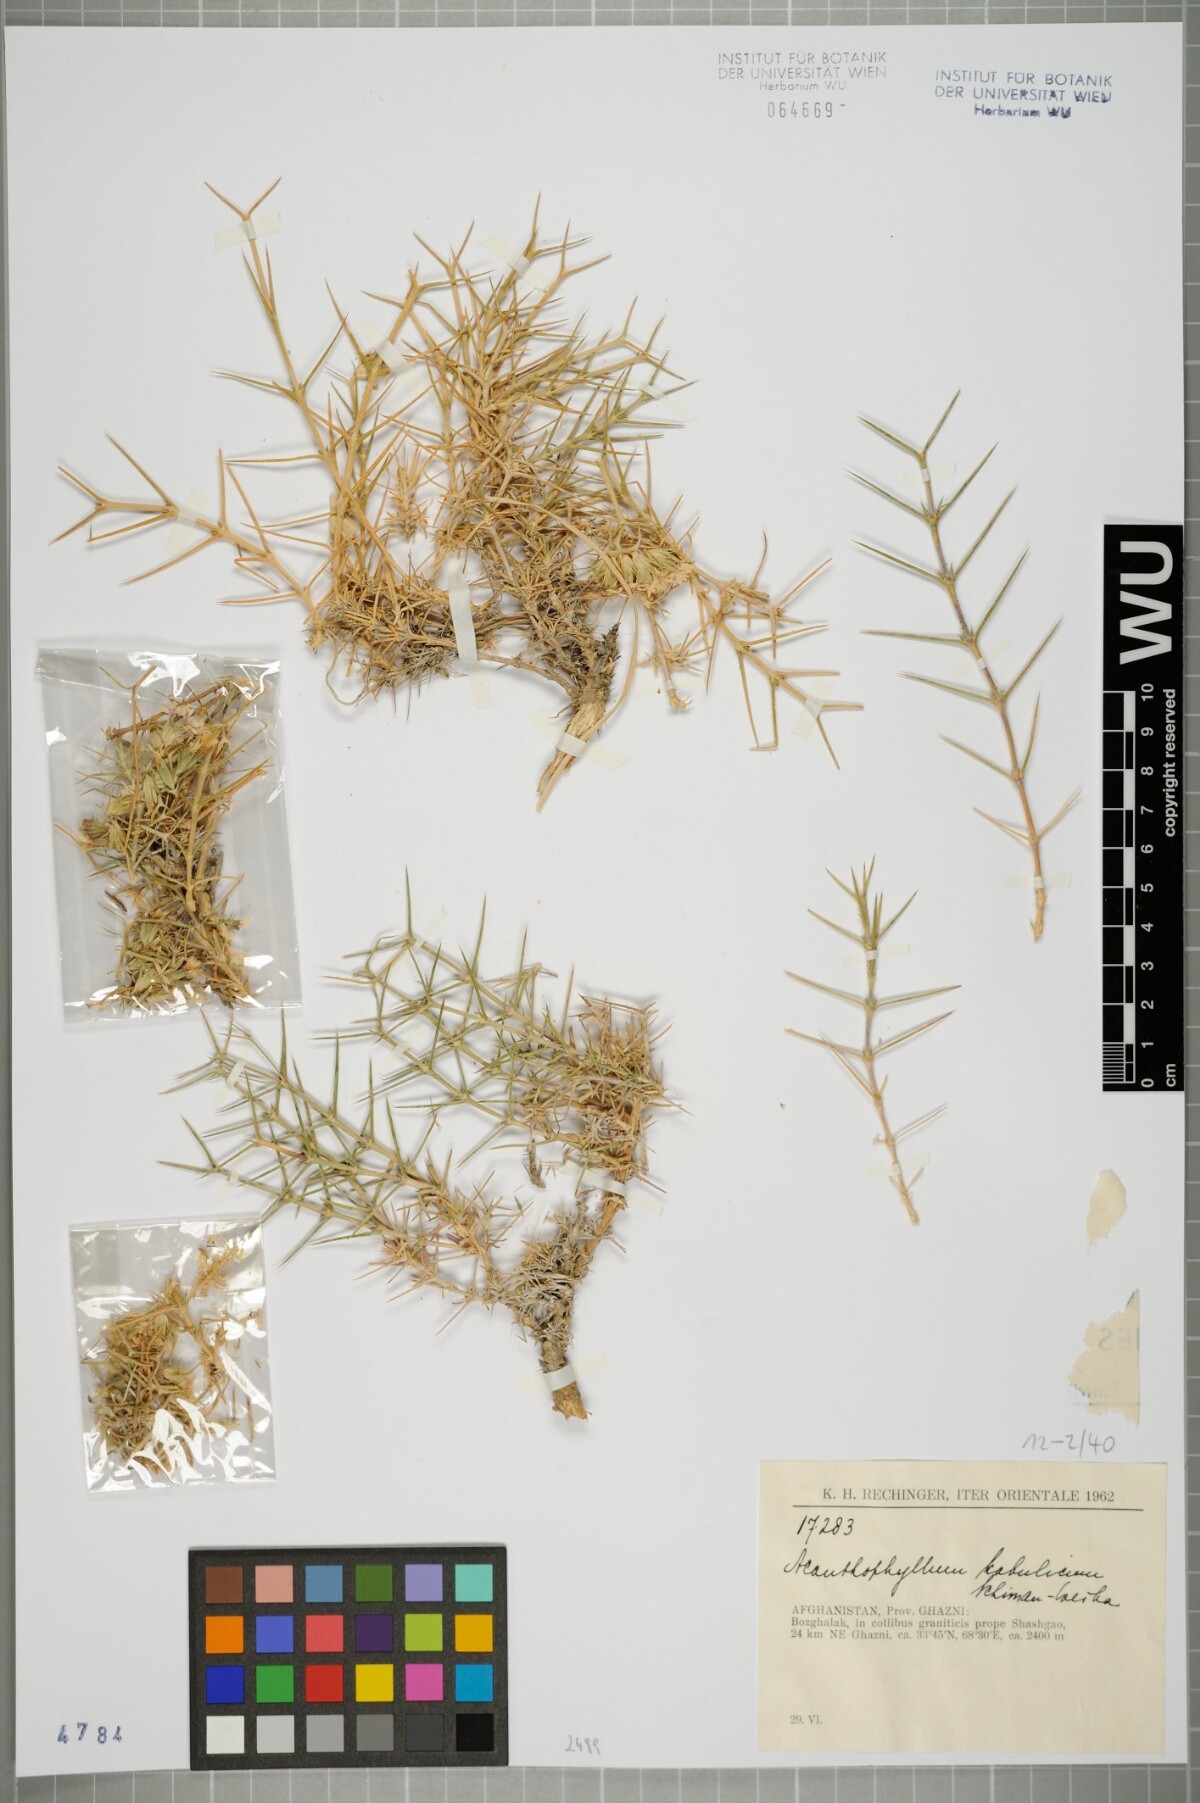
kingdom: Plantae
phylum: Tracheophyta
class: Magnoliopsida
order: Caryophyllales
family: Caryophyllaceae
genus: Acanthophyllum
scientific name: Acanthophyllum kabulicum
